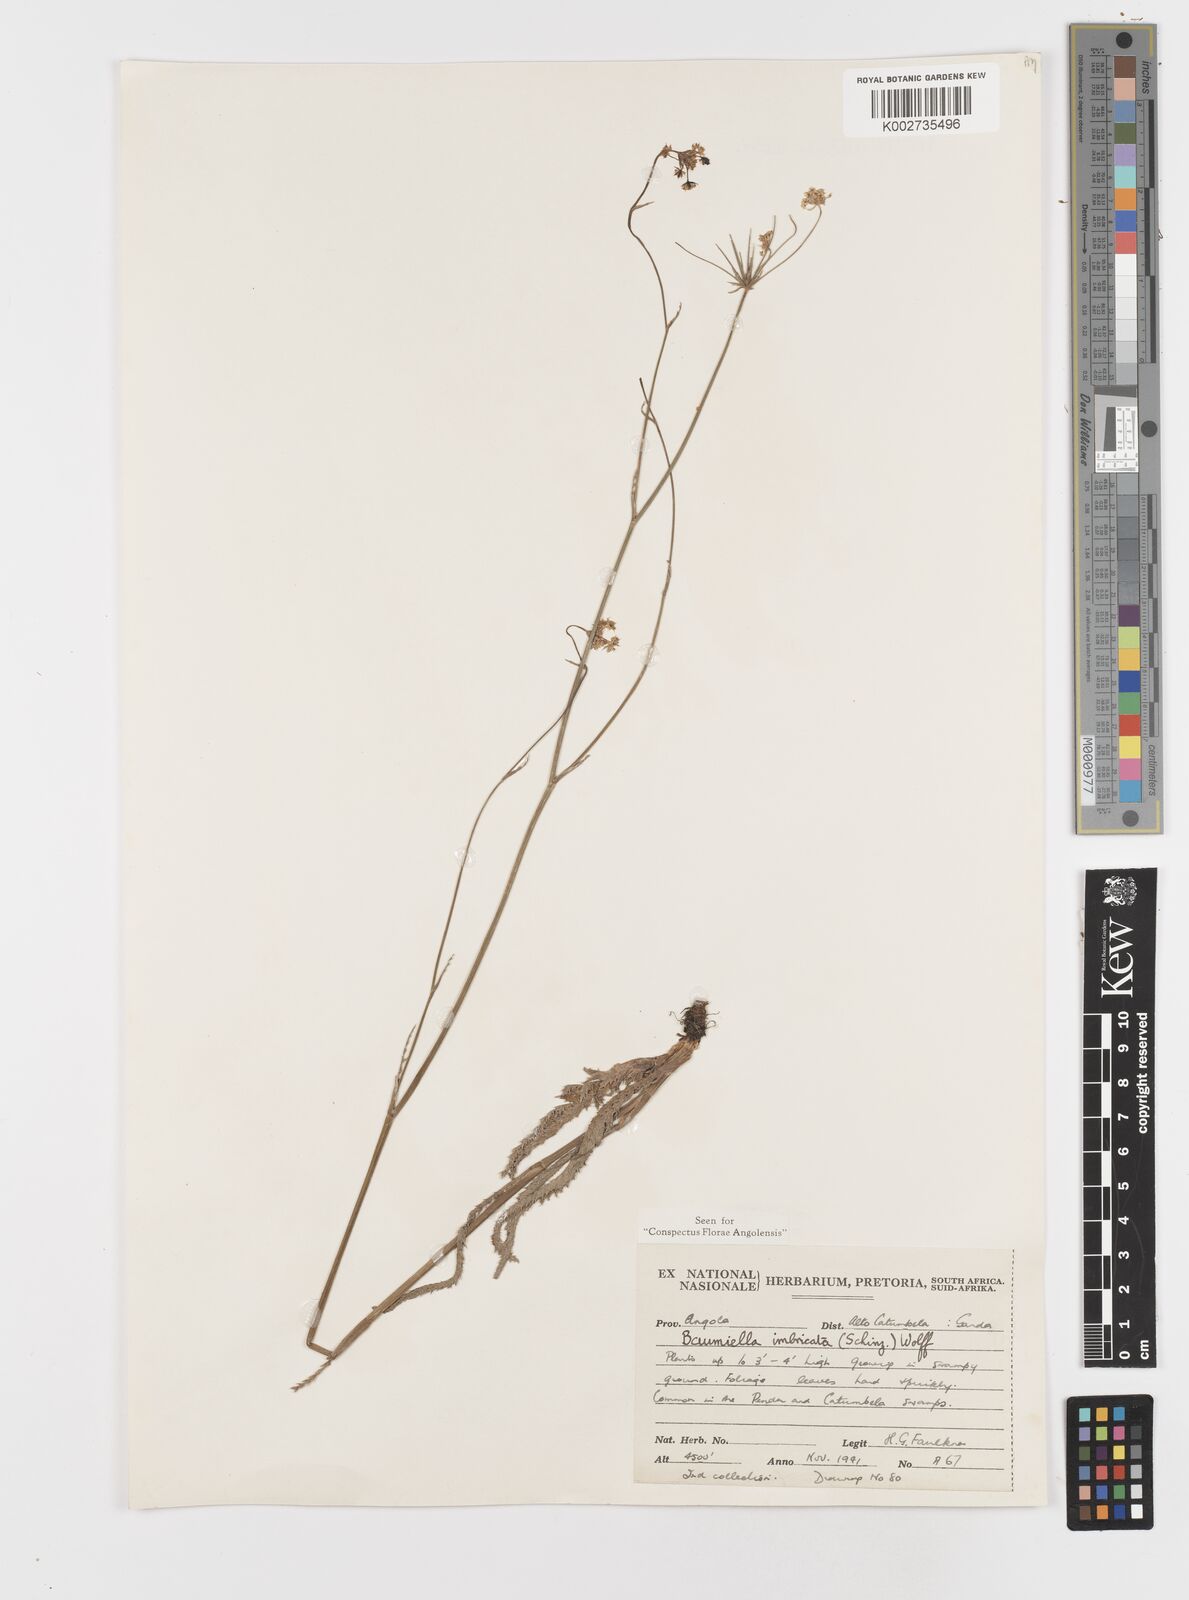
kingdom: Plantae
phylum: Tracheophyta
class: Magnoliopsida
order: Apiales
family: Apiaceae
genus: Berula
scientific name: Berula imbricata
